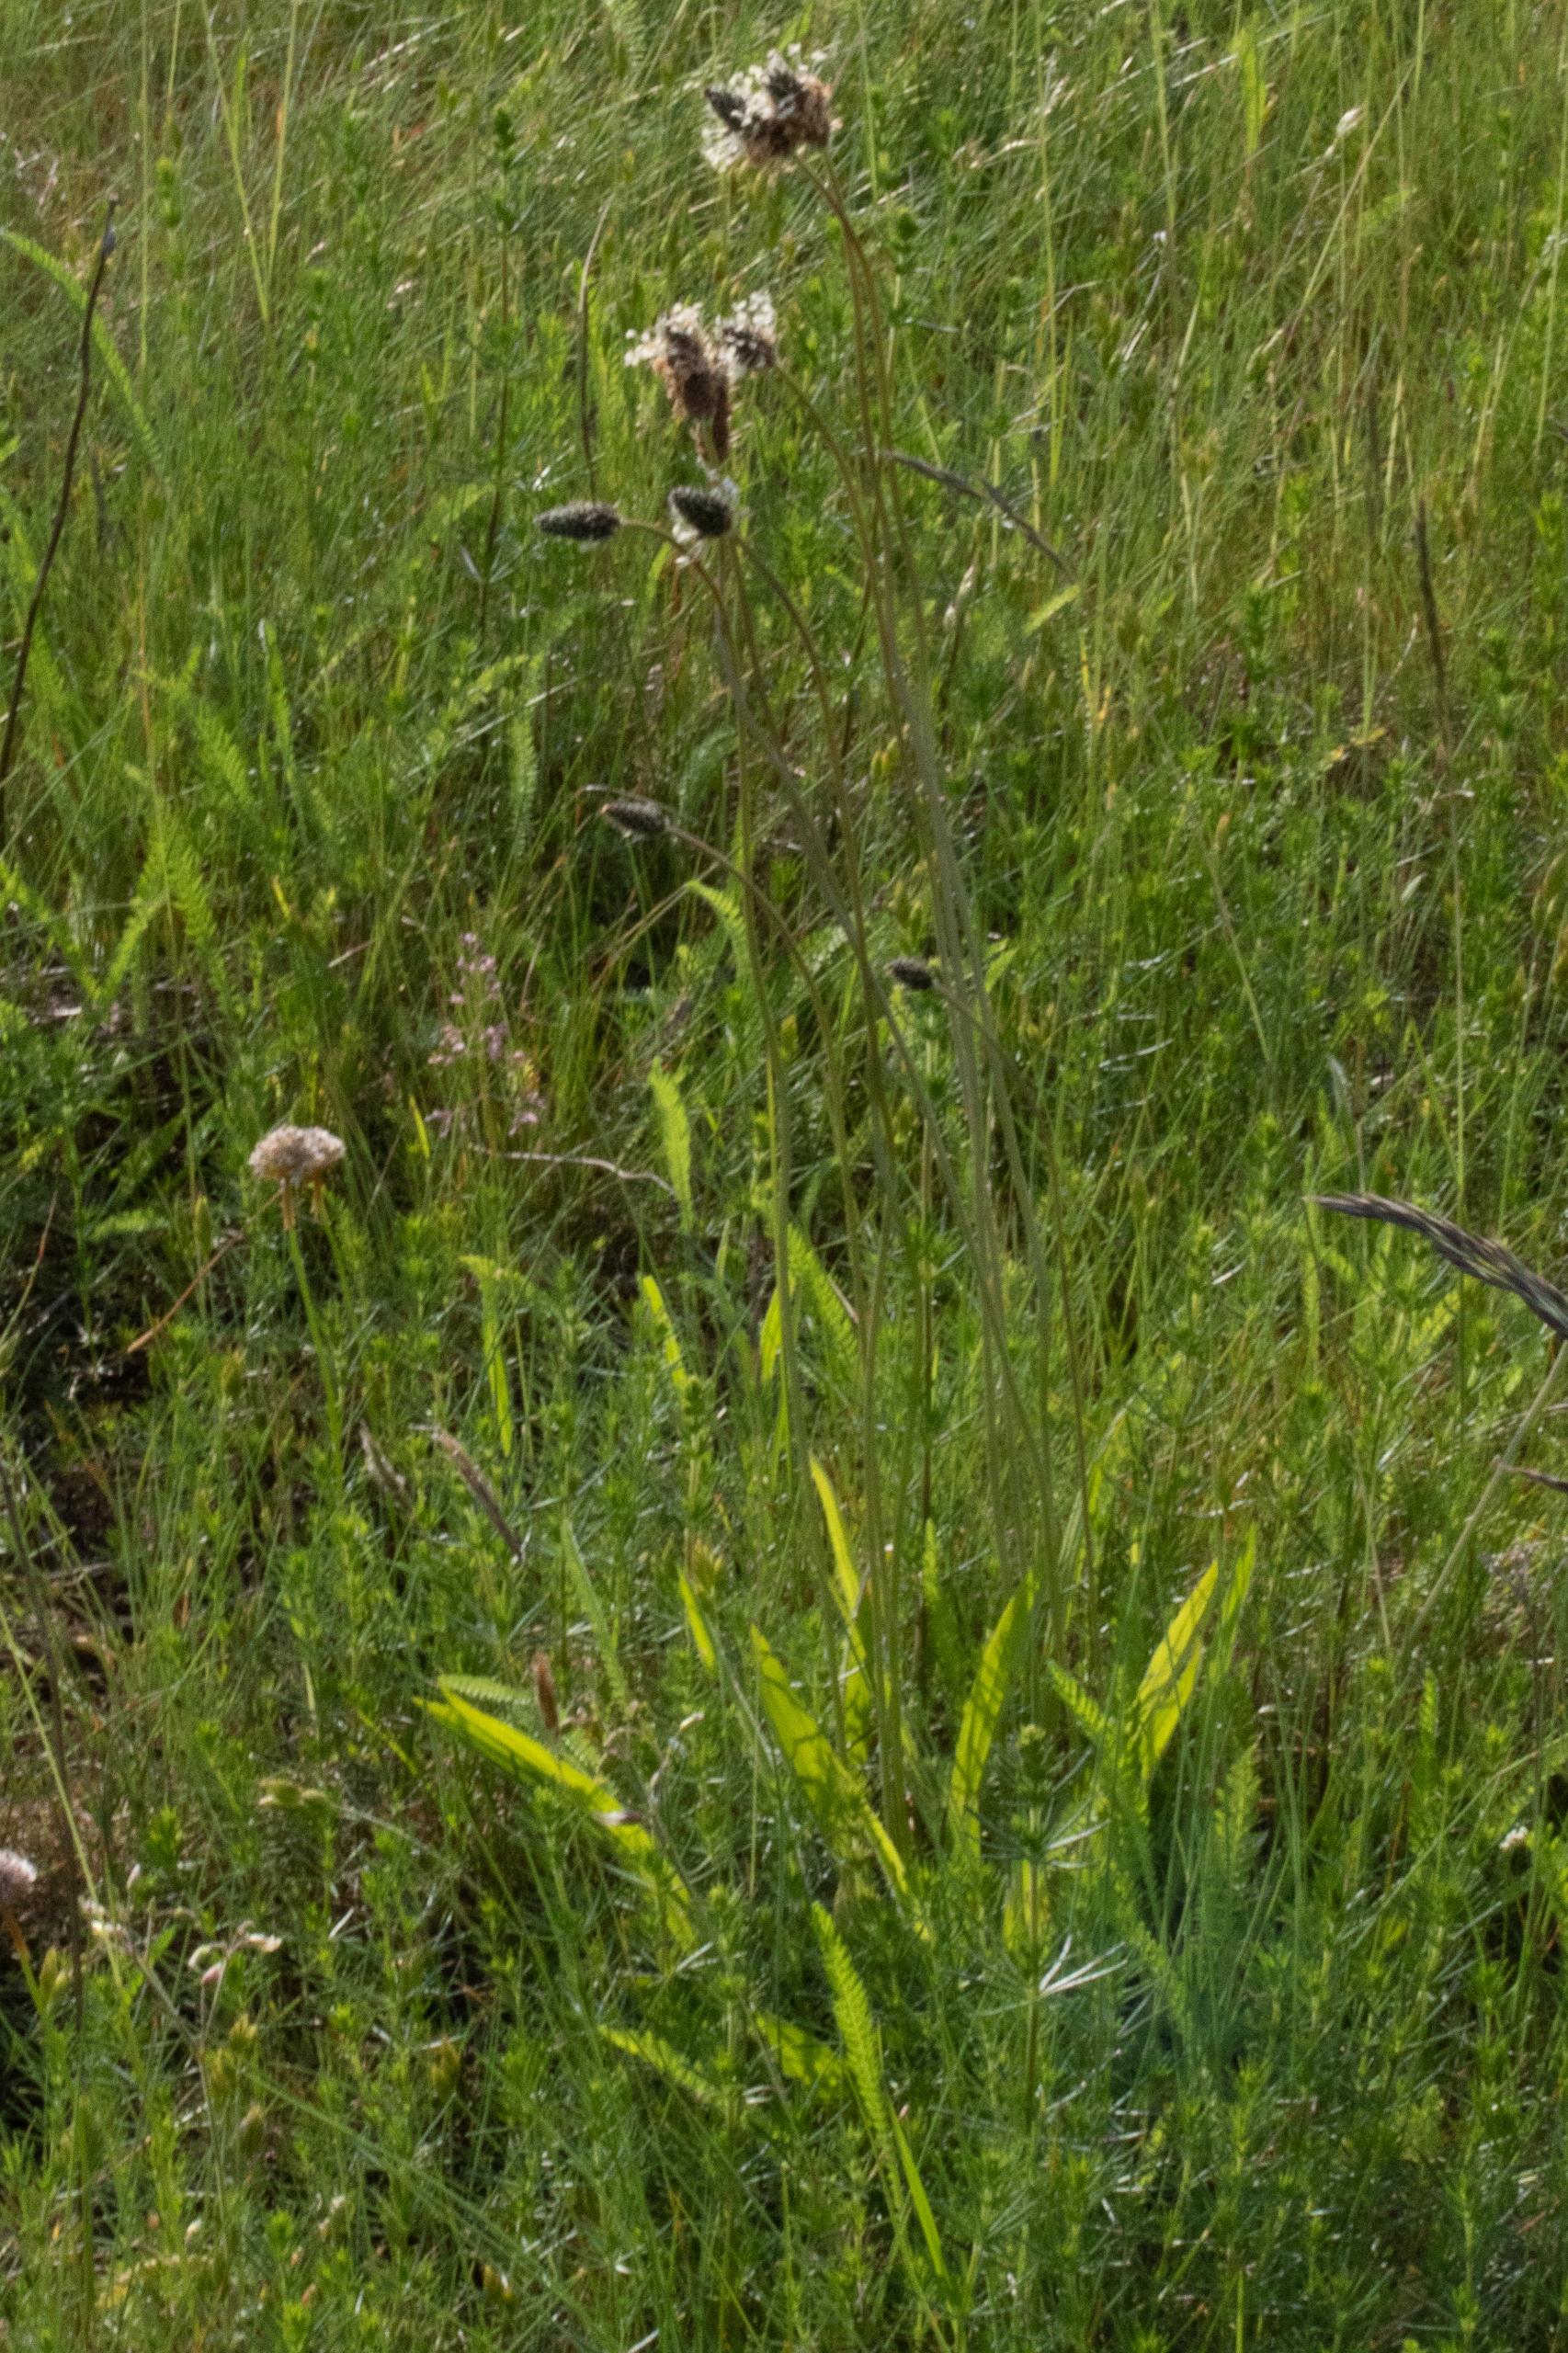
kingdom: Plantae
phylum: Tracheophyta
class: Magnoliopsida
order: Lamiales
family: Plantaginaceae
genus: Plantago
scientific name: Plantago lanceolata
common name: Lancet-vejbred
